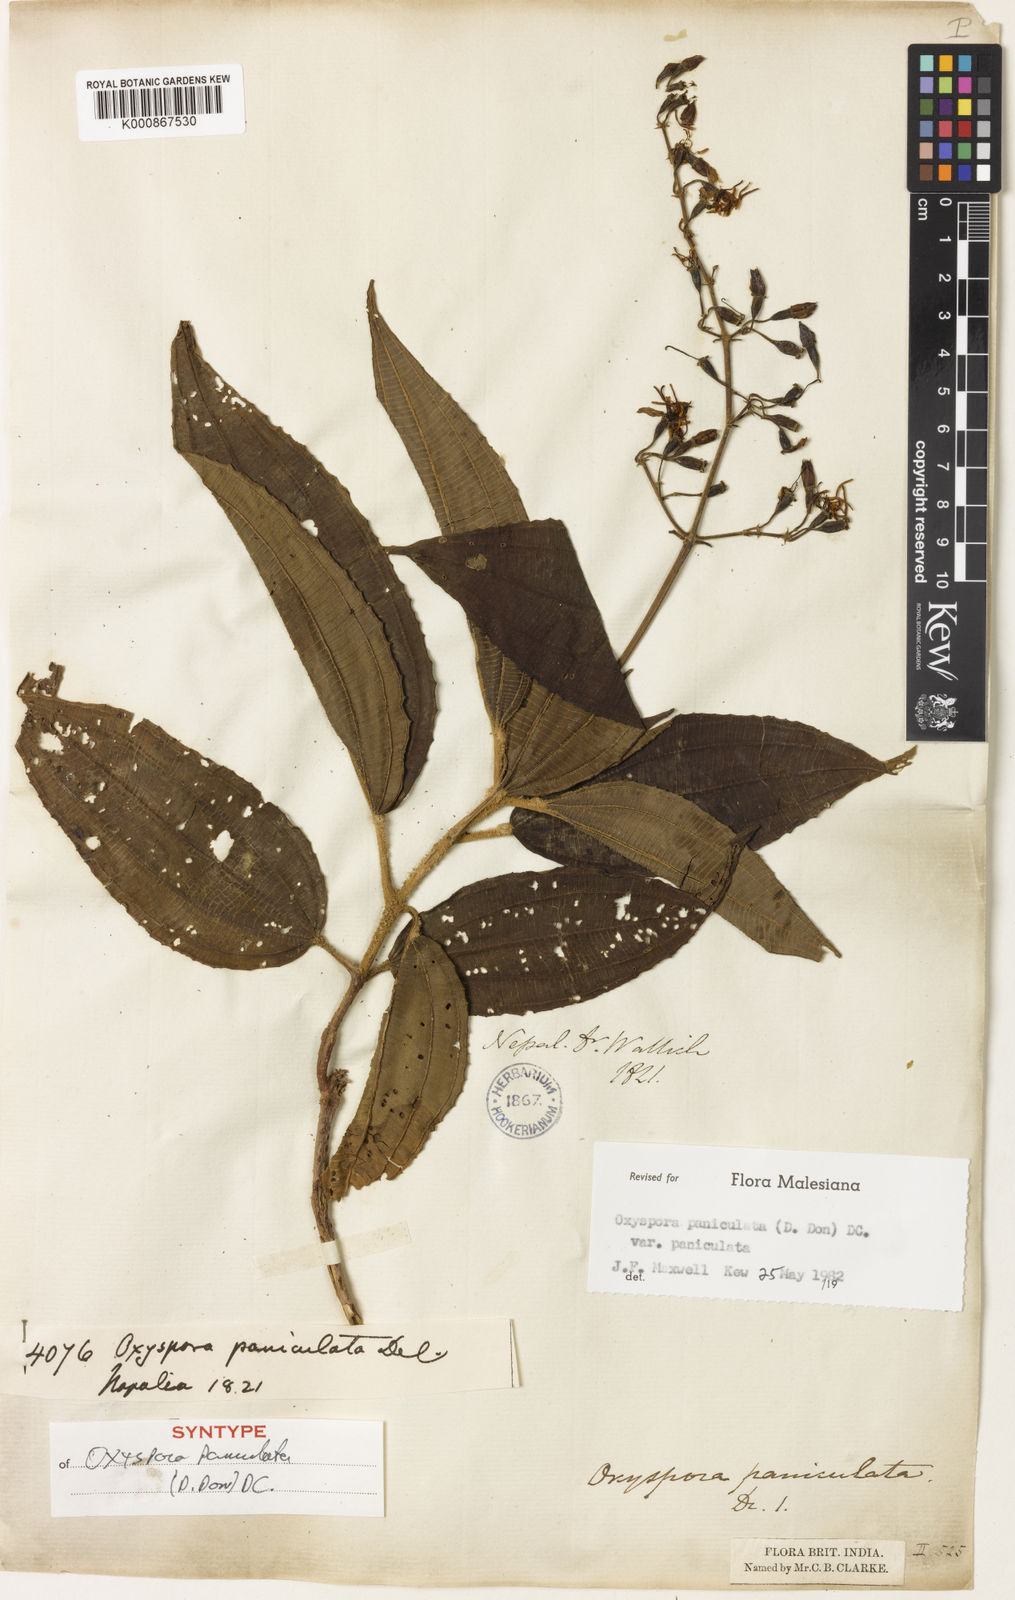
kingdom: Plantae
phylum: Tracheophyta
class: Magnoliopsida
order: Myrtales
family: Melastomataceae
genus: Oxyspora
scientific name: Oxyspora paniculata
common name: Bristletips
